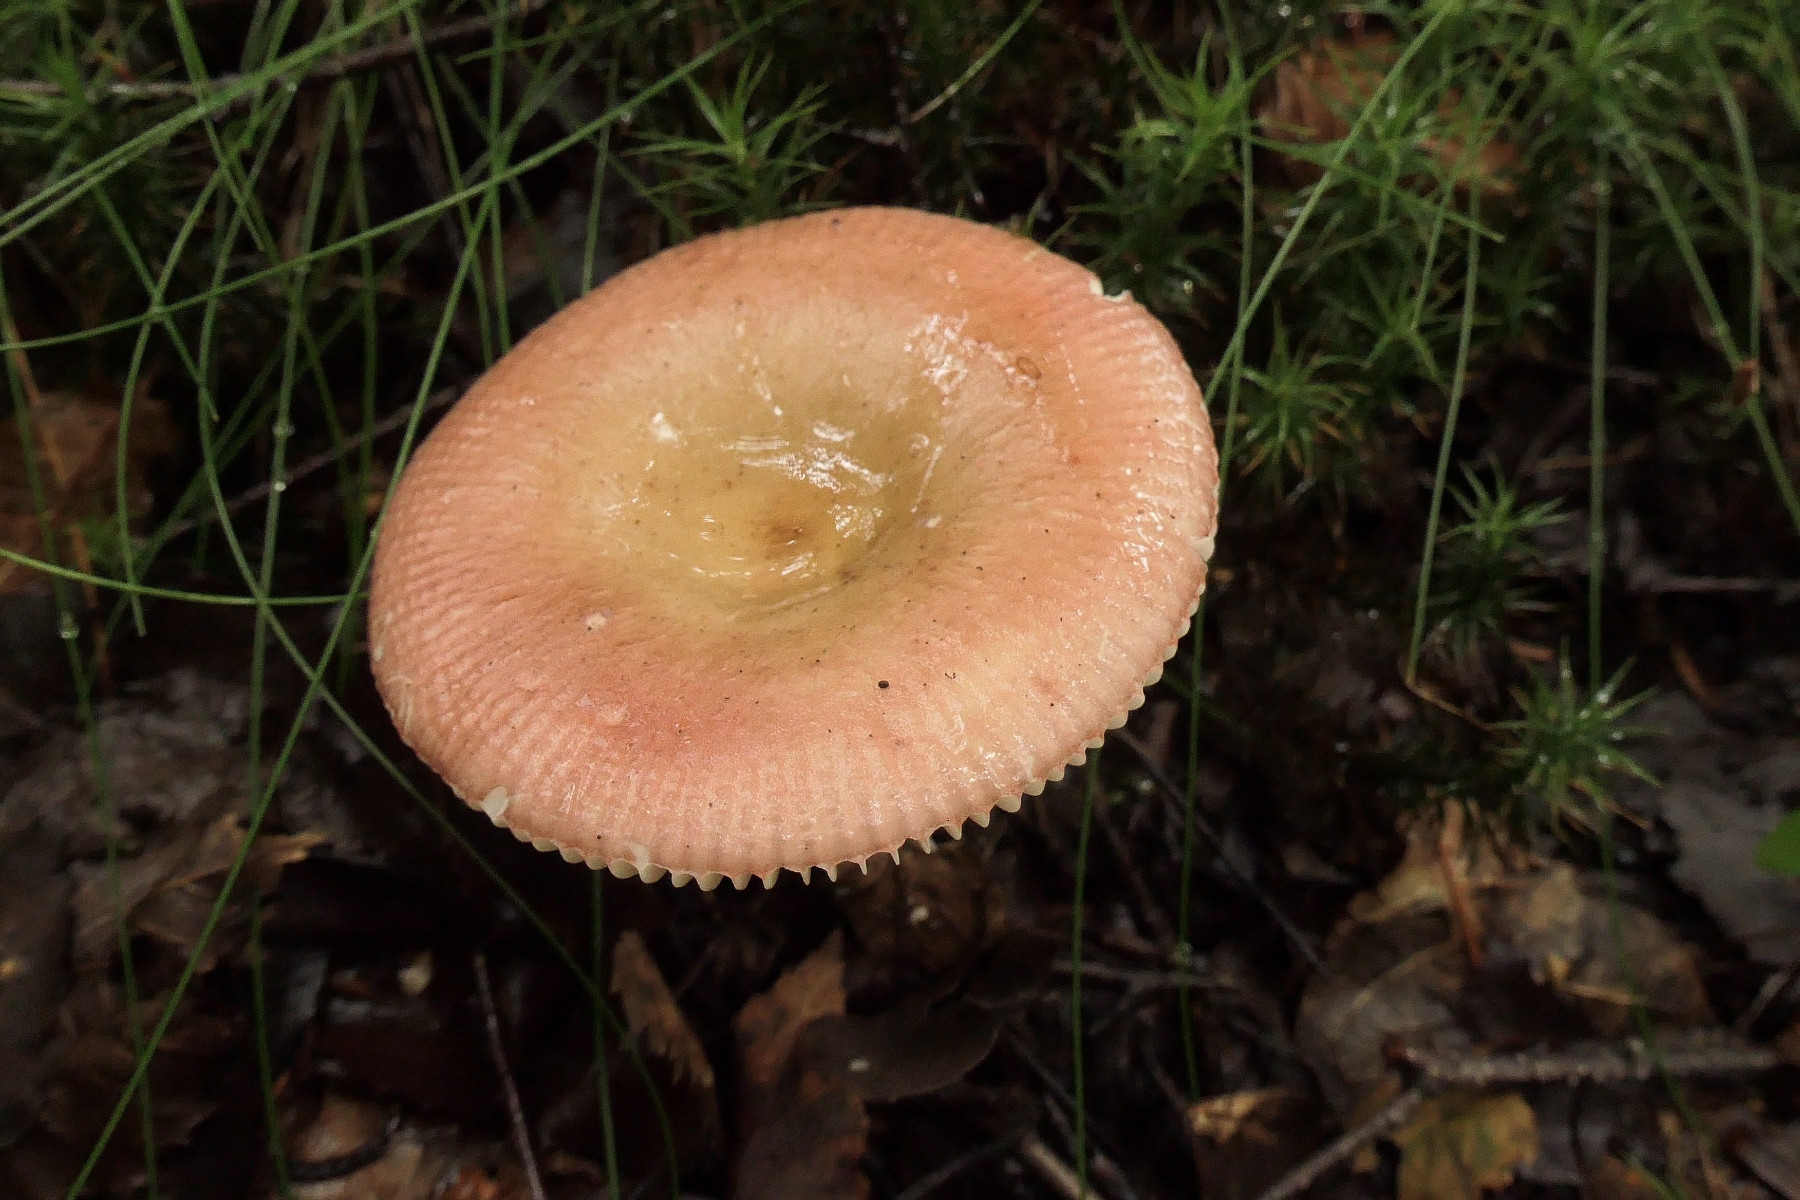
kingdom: Fungi
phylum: Basidiomycota
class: Agaricomycetes
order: Russulales
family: Russulaceae
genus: Russula
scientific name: Russula nitida
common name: året skørhat
